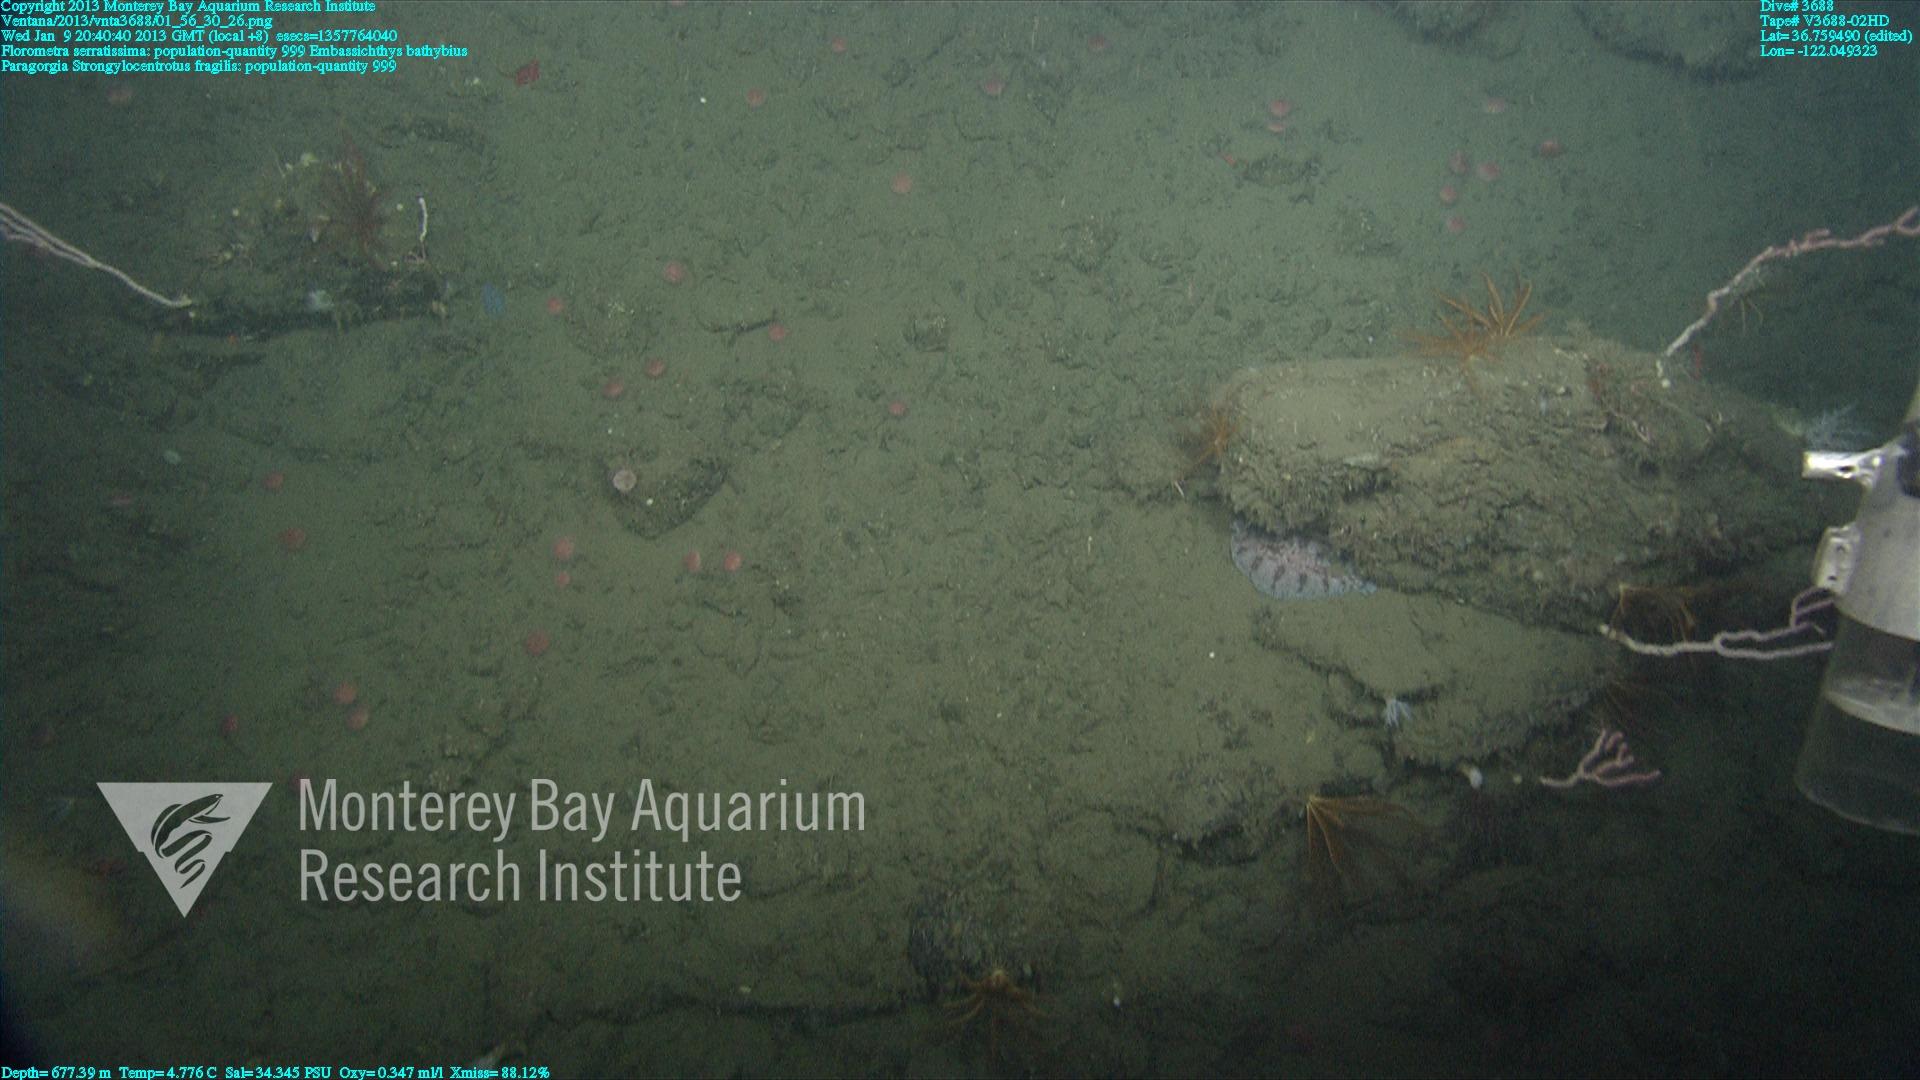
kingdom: Animalia
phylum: Cnidaria
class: Anthozoa
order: Scleralcyonacea
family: Coralliidae
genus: Paragorgia
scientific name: Paragorgia
